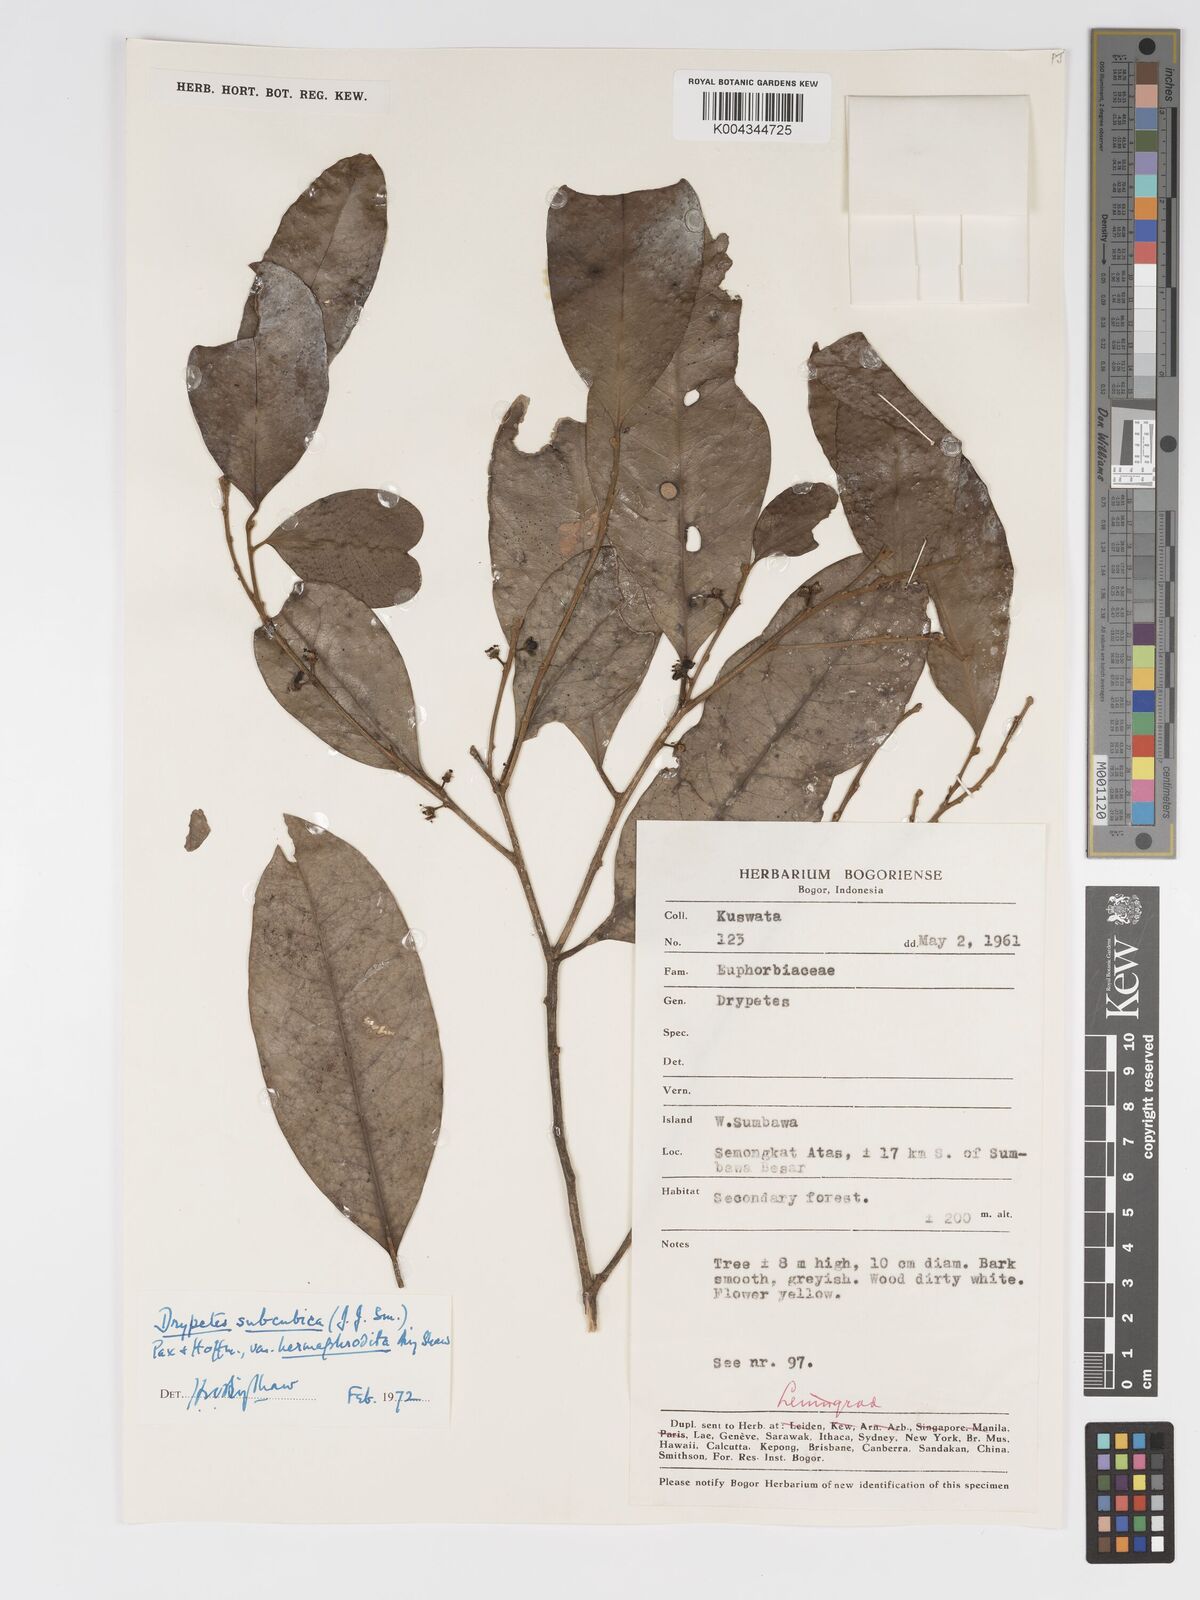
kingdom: Plantae
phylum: Tracheophyta
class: Magnoliopsida
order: Malpighiales
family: Putranjivaceae
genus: Drypetes
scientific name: Drypetes subcubica
